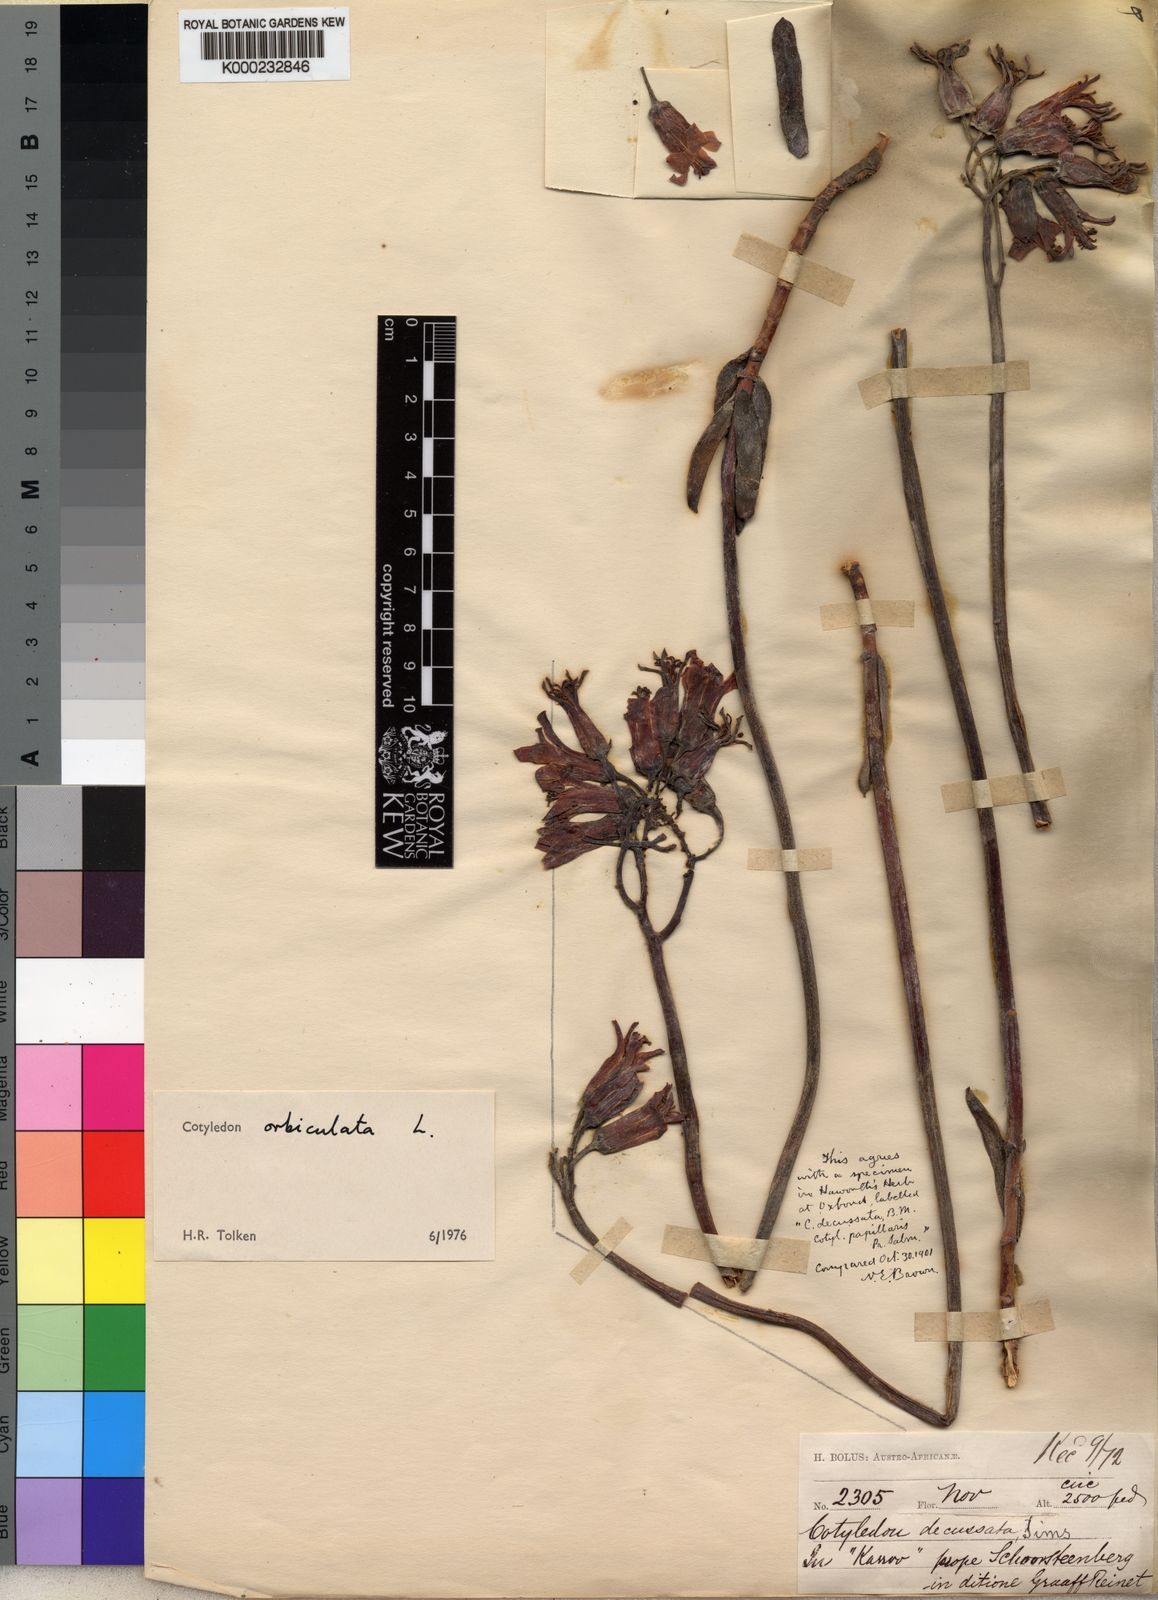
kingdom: Plantae
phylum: Tracheophyta
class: Magnoliopsida
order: Saxifragales
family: Crassulaceae
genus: Cotyledon
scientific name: Cotyledon orbiculata
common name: Pig's ear
